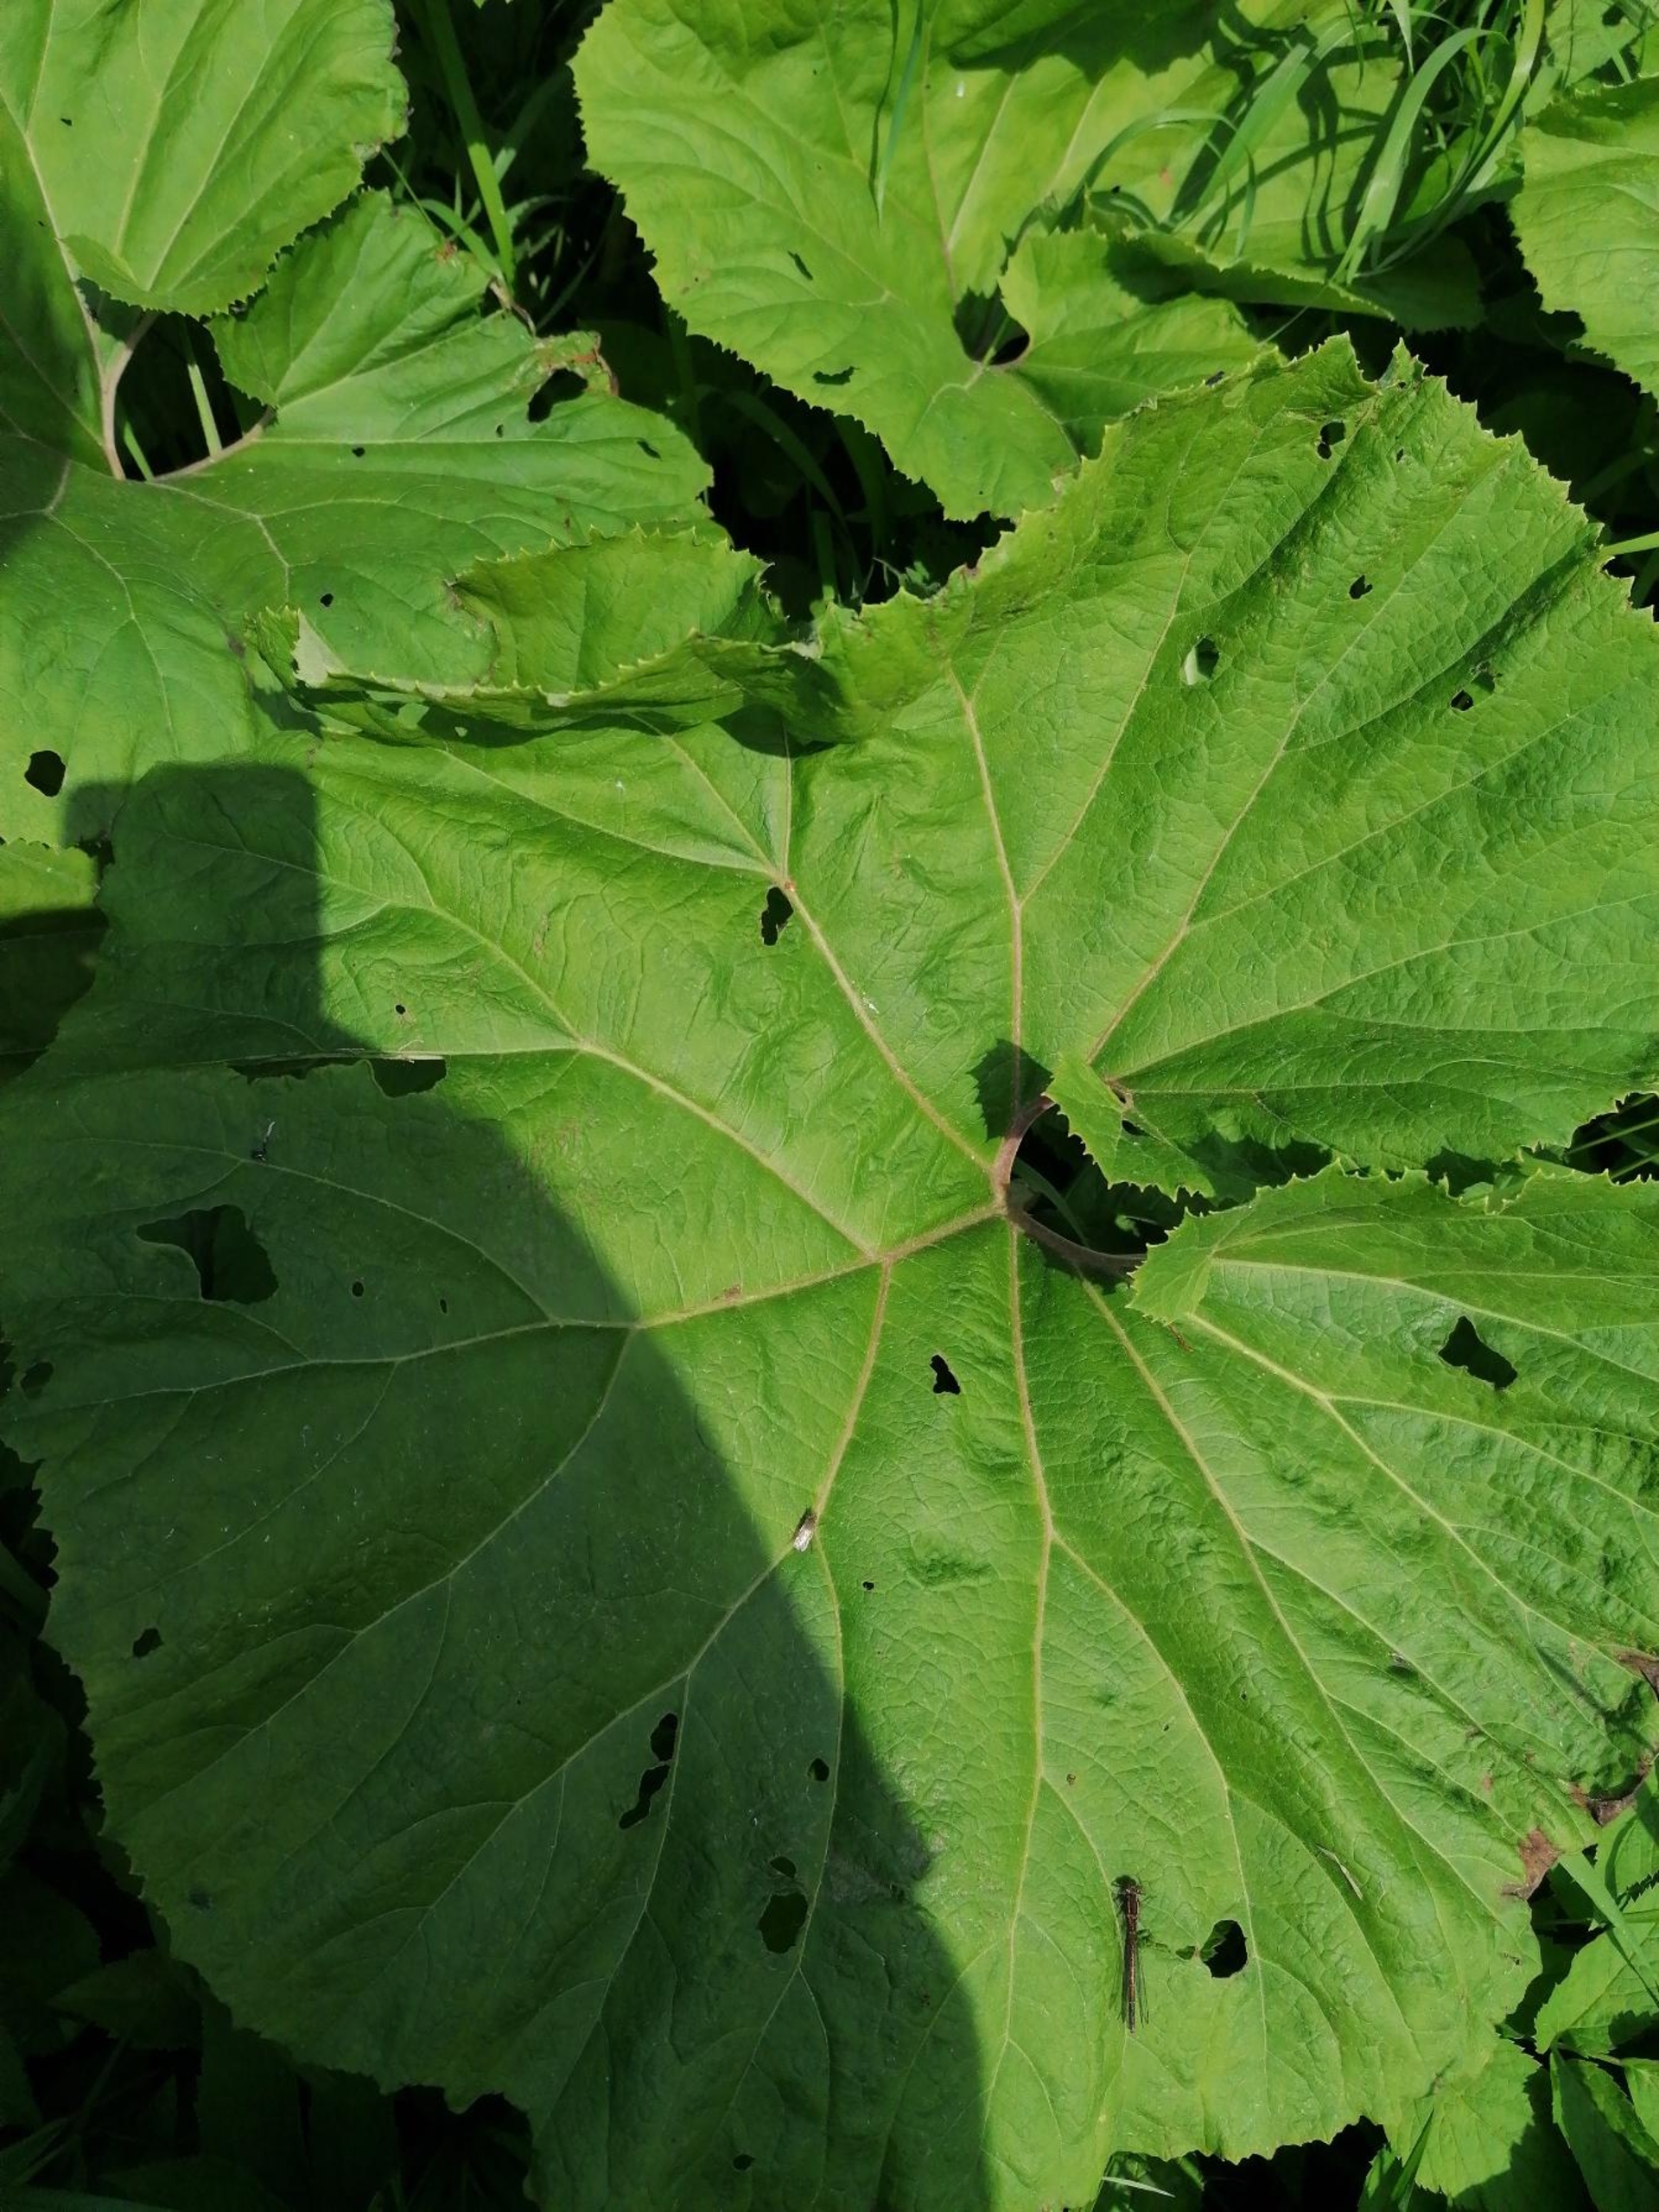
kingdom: Plantae
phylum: Tracheophyta
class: Magnoliopsida
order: Asterales
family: Asteraceae
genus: Petasites
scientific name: Petasites japonicus
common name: Japansk hestehov
